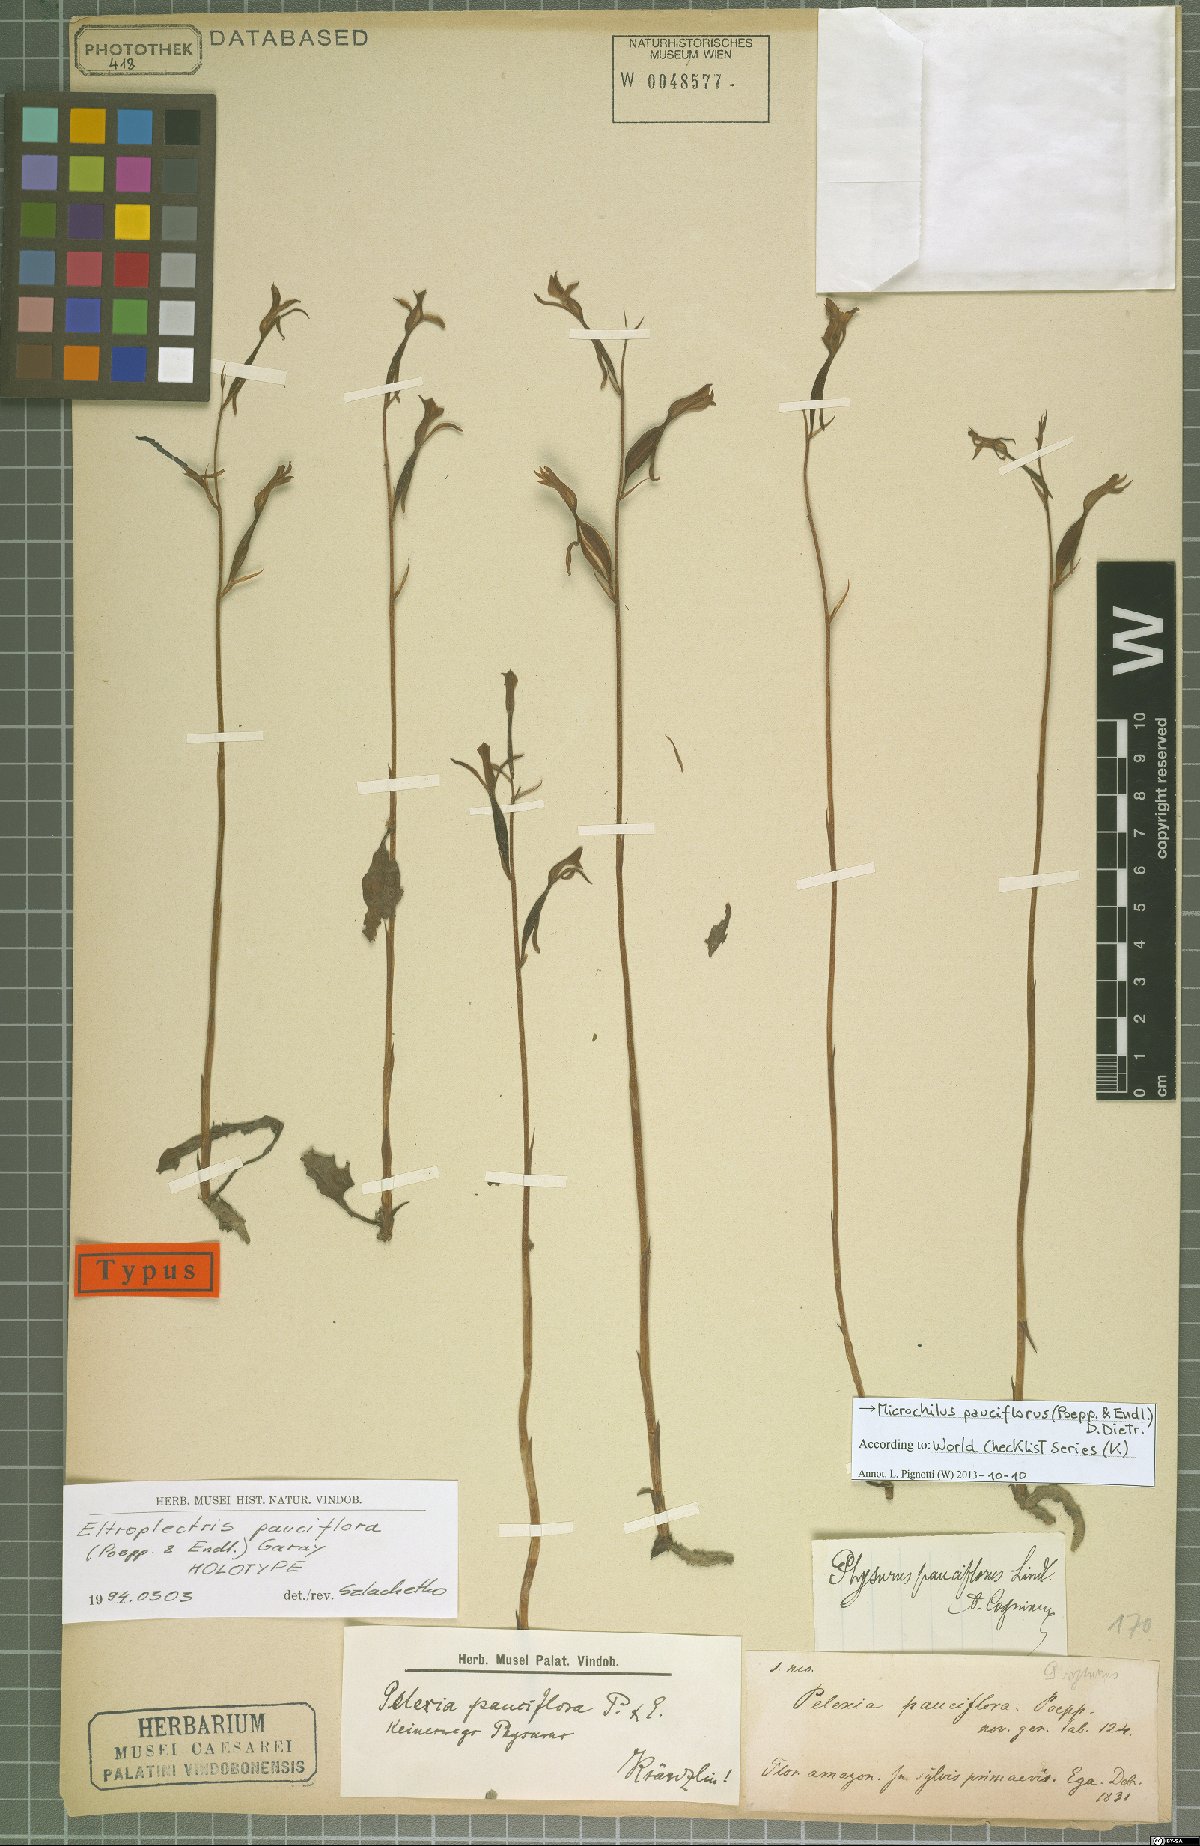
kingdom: Plantae
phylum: Tracheophyta
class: Liliopsida
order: Asparagales
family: Orchidaceae
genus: Microchilus
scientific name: Microchilus pauciflorus
